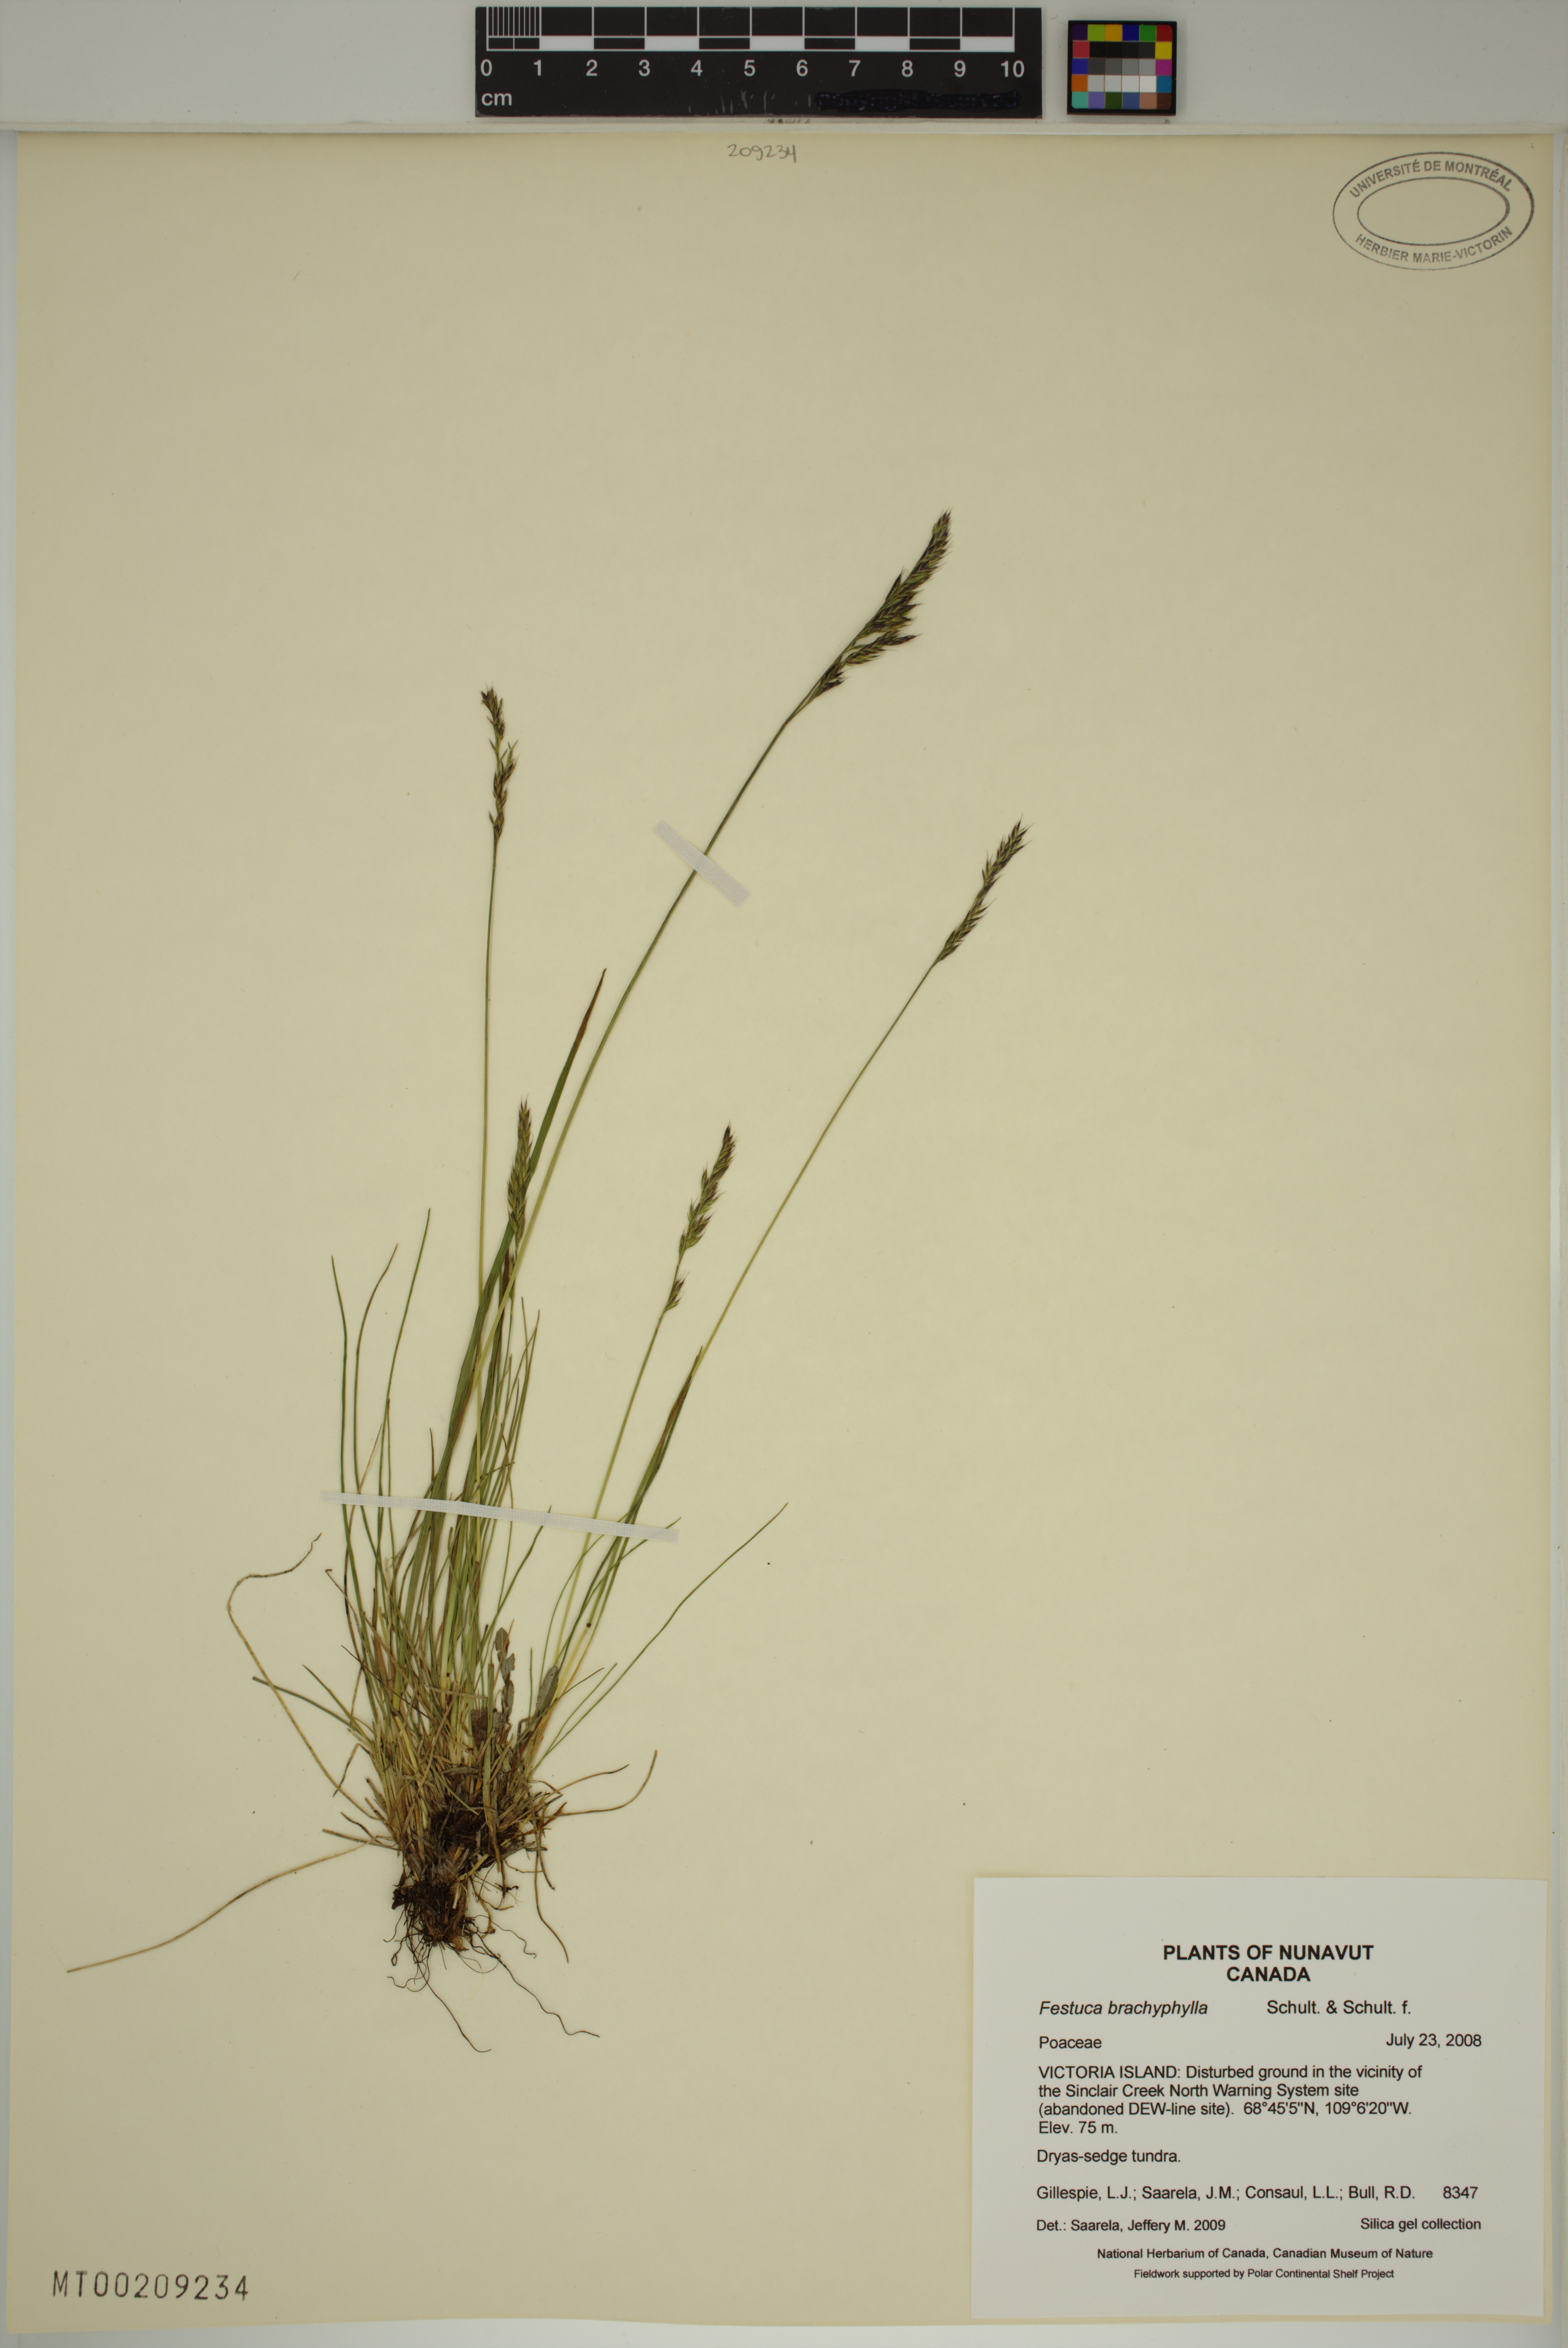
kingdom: Plantae
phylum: Tracheophyta
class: Liliopsida
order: Poales
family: Poaceae
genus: Festuca
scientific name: Festuca brachyphylla
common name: Alpine fescue
